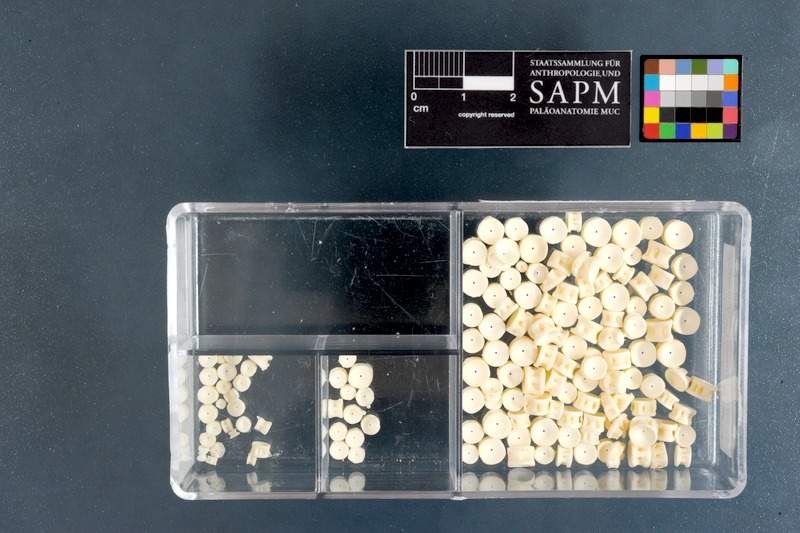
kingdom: Animalia
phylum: Chordata
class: Elasmobranchii
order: Rhinopristiformes
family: Rhinobatidae
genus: Acroteriobatus
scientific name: Acroteriobatus annulatus
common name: Lesser guitarfish
